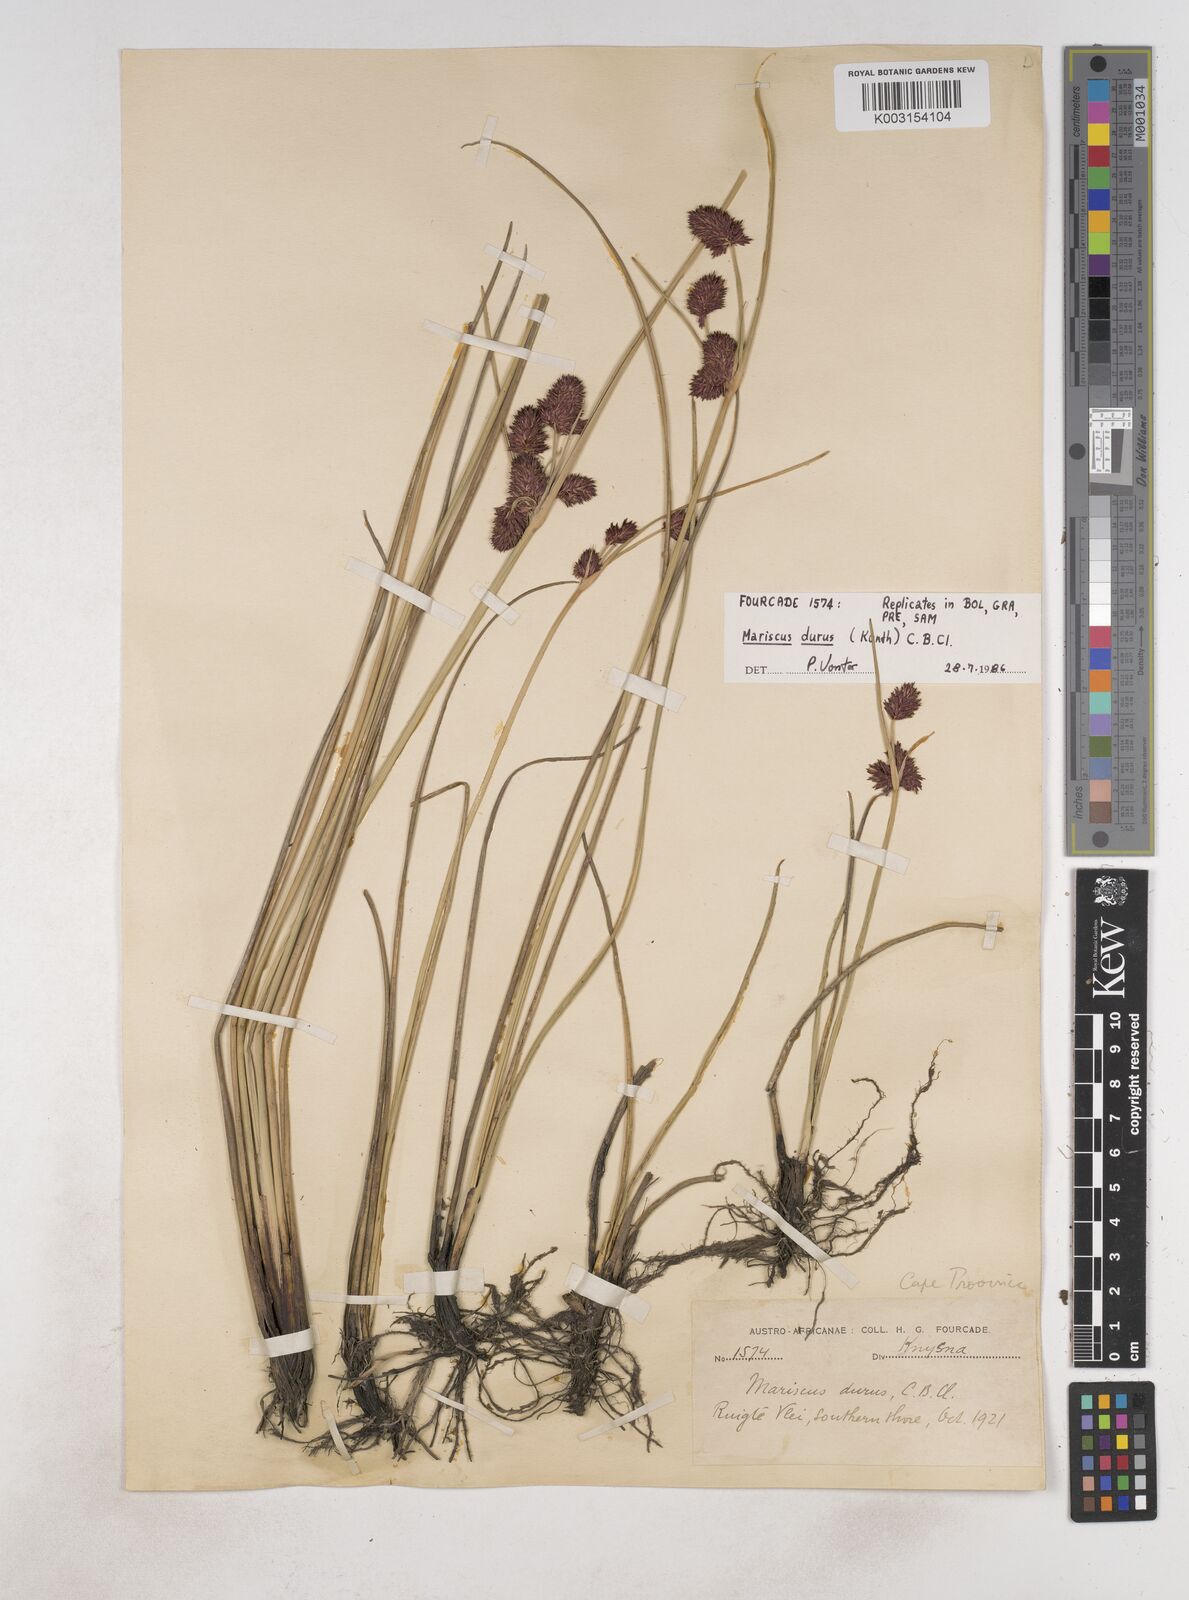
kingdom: Plantae
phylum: Tracheophyta
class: Liliopsida
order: Poales
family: Cyperaceae
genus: Cyperus
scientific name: Cyperus durus
